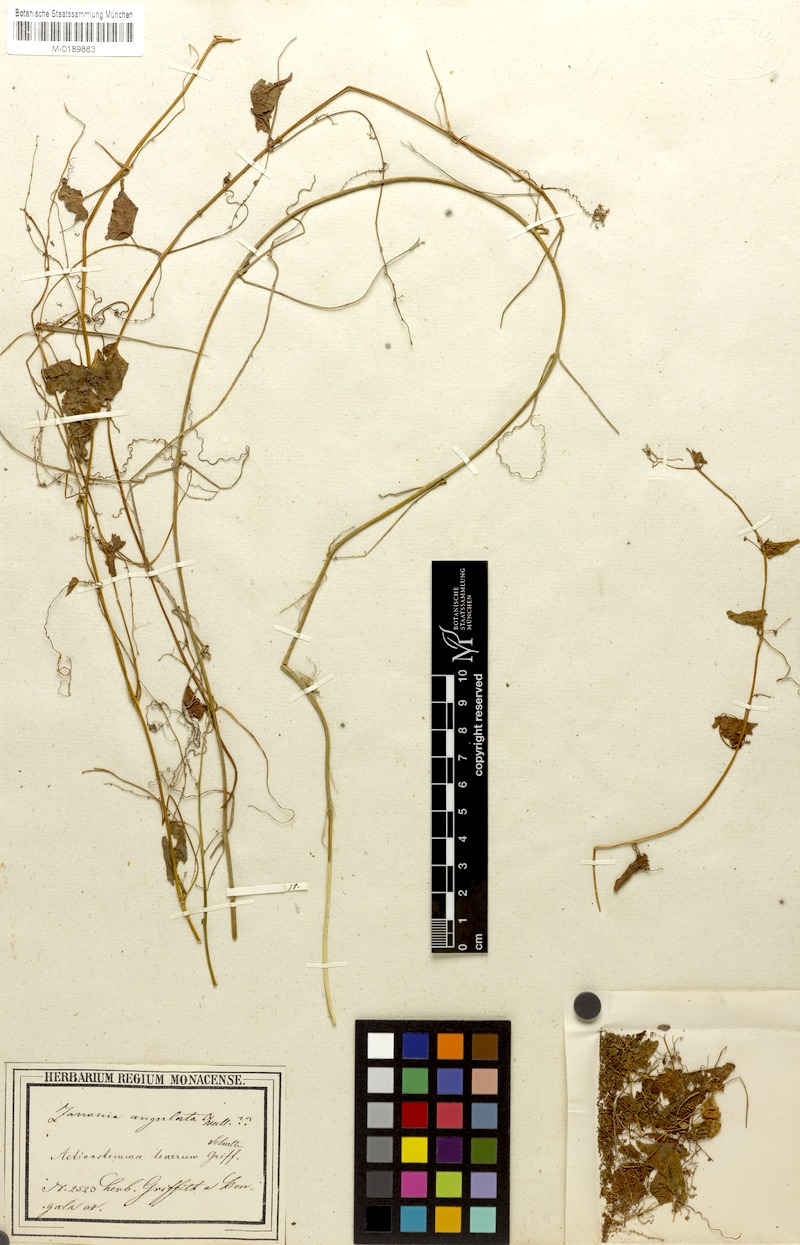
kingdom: Plantae
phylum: Tracheophyta
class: Magnoliopsida
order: Cucurbitales
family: Cucurbitaceae
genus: Actinostemma
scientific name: Actinostemma tenerum
